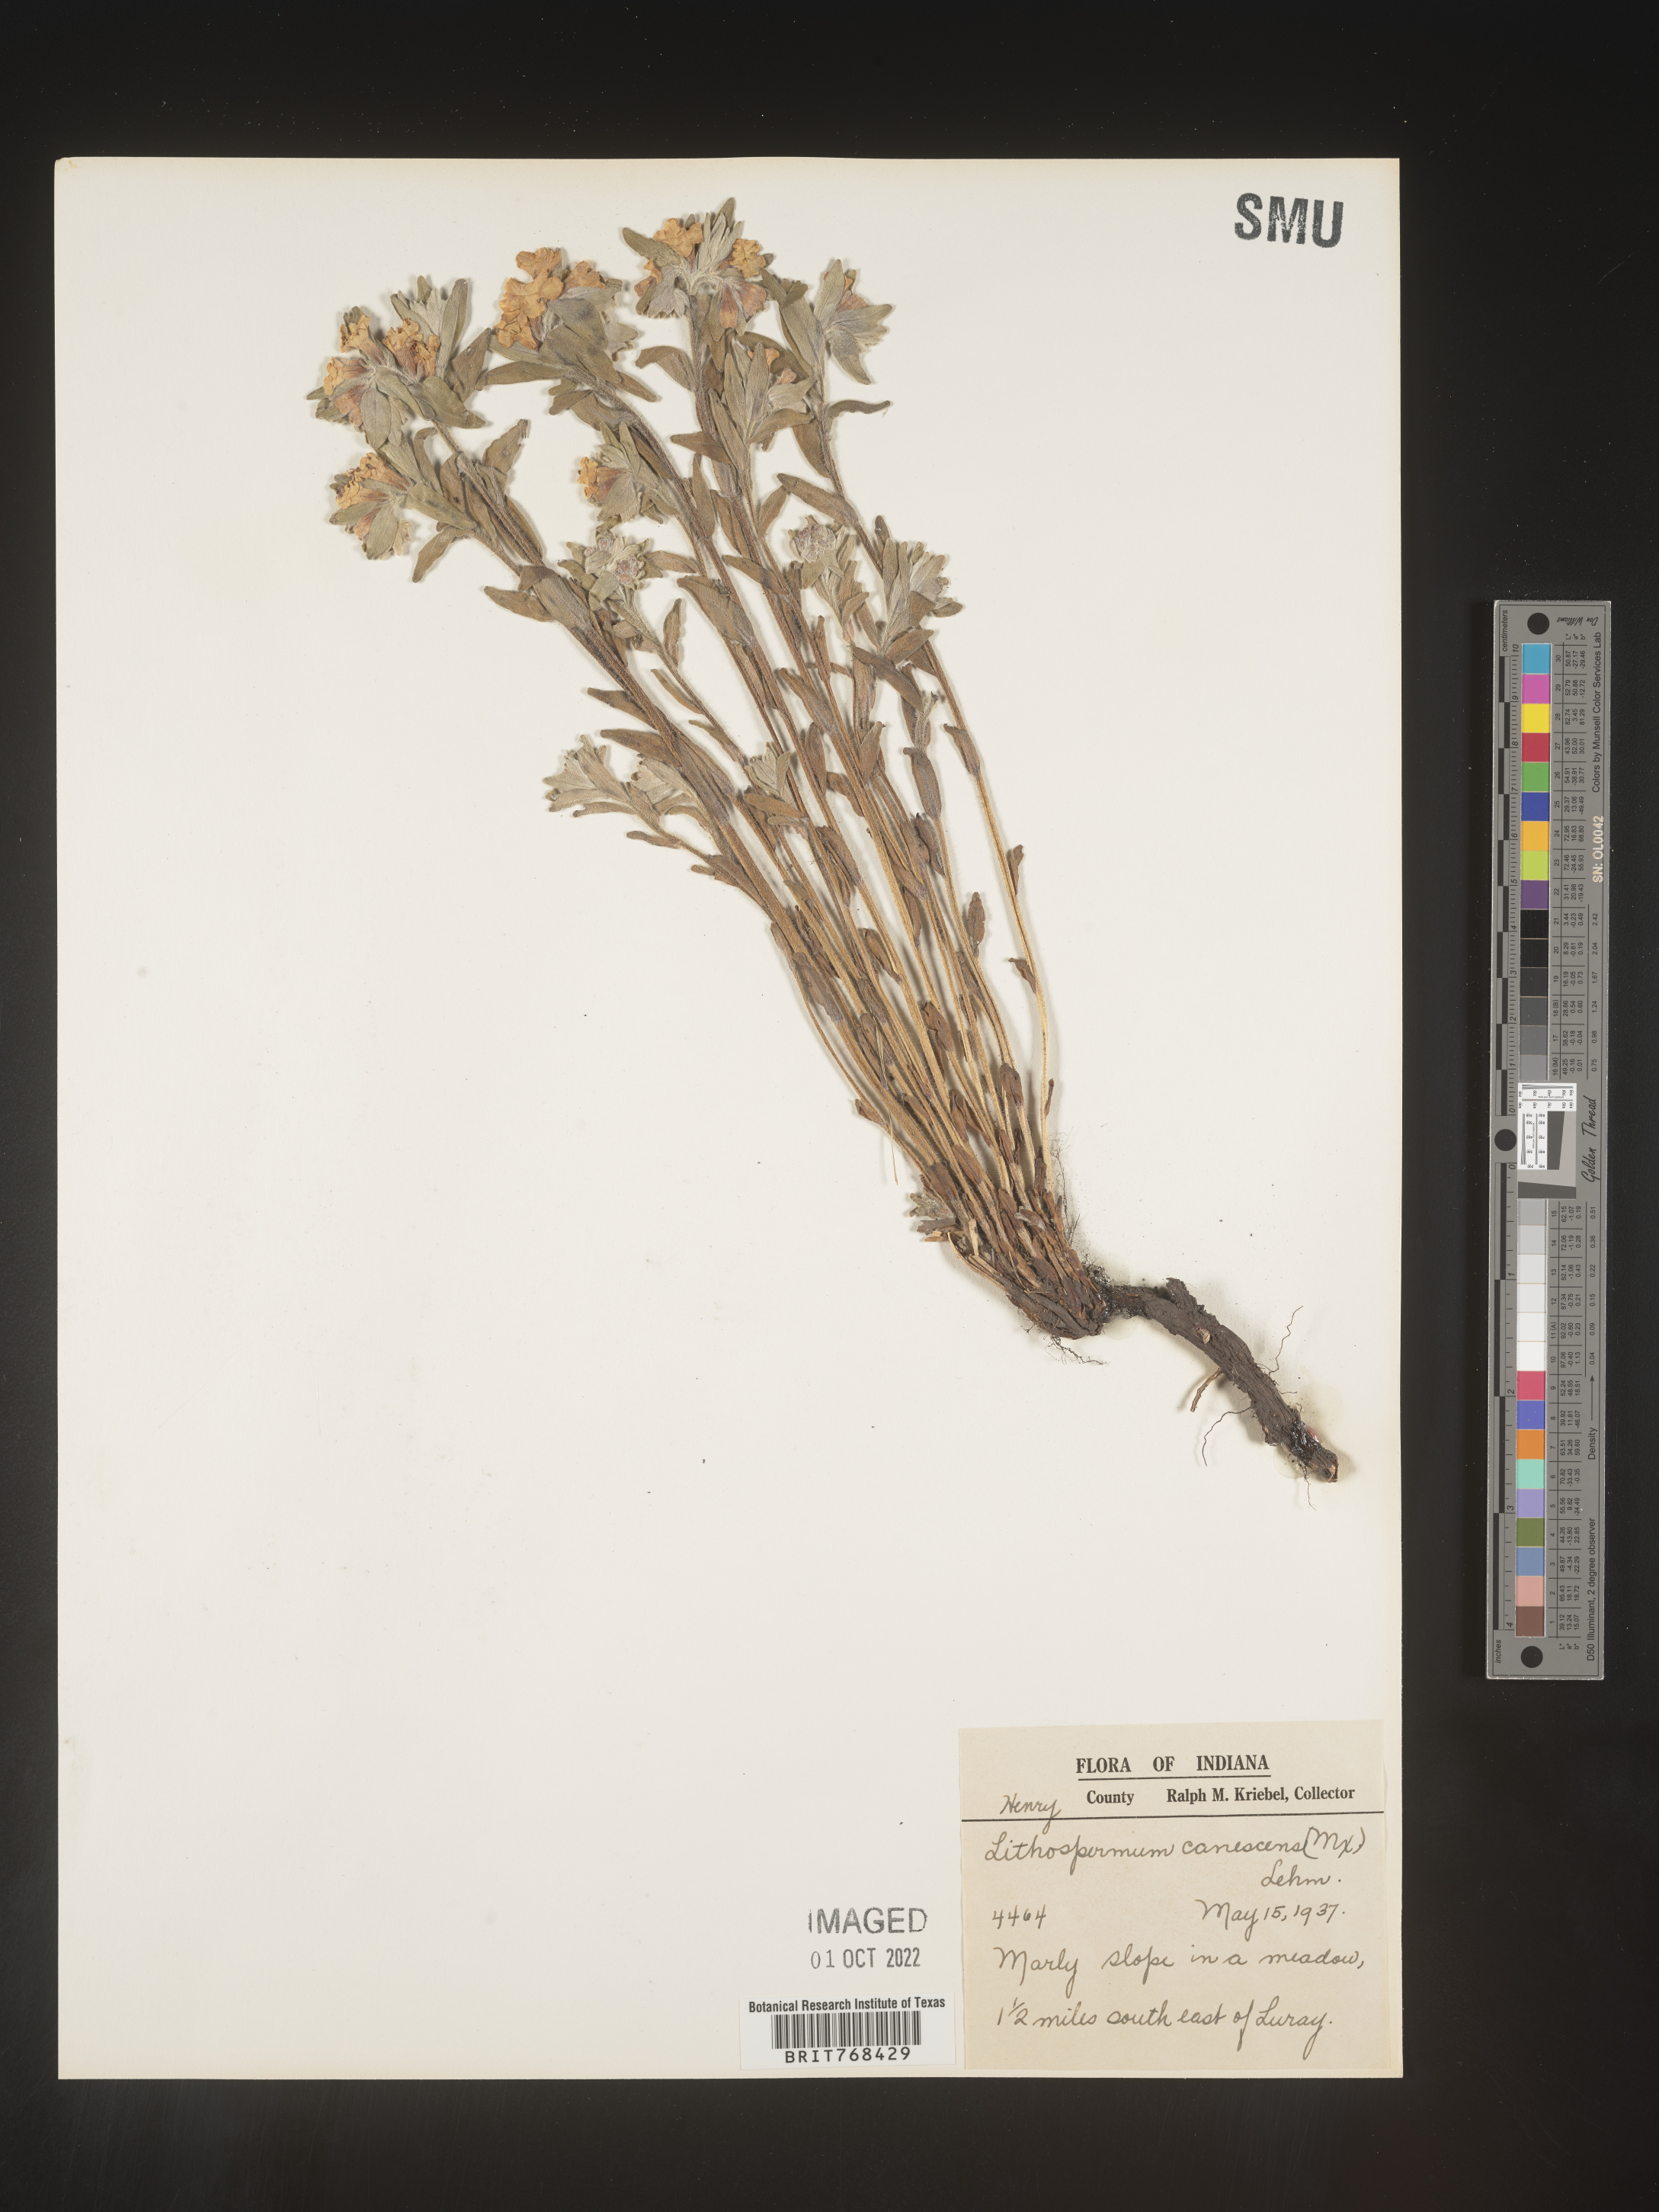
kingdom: Plantae
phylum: Tracheophyta
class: Magnoliopsida
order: Boraginales
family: Boraginaceae
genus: Lithospermum
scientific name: Lithospermum canescens
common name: Hoary puccoon
